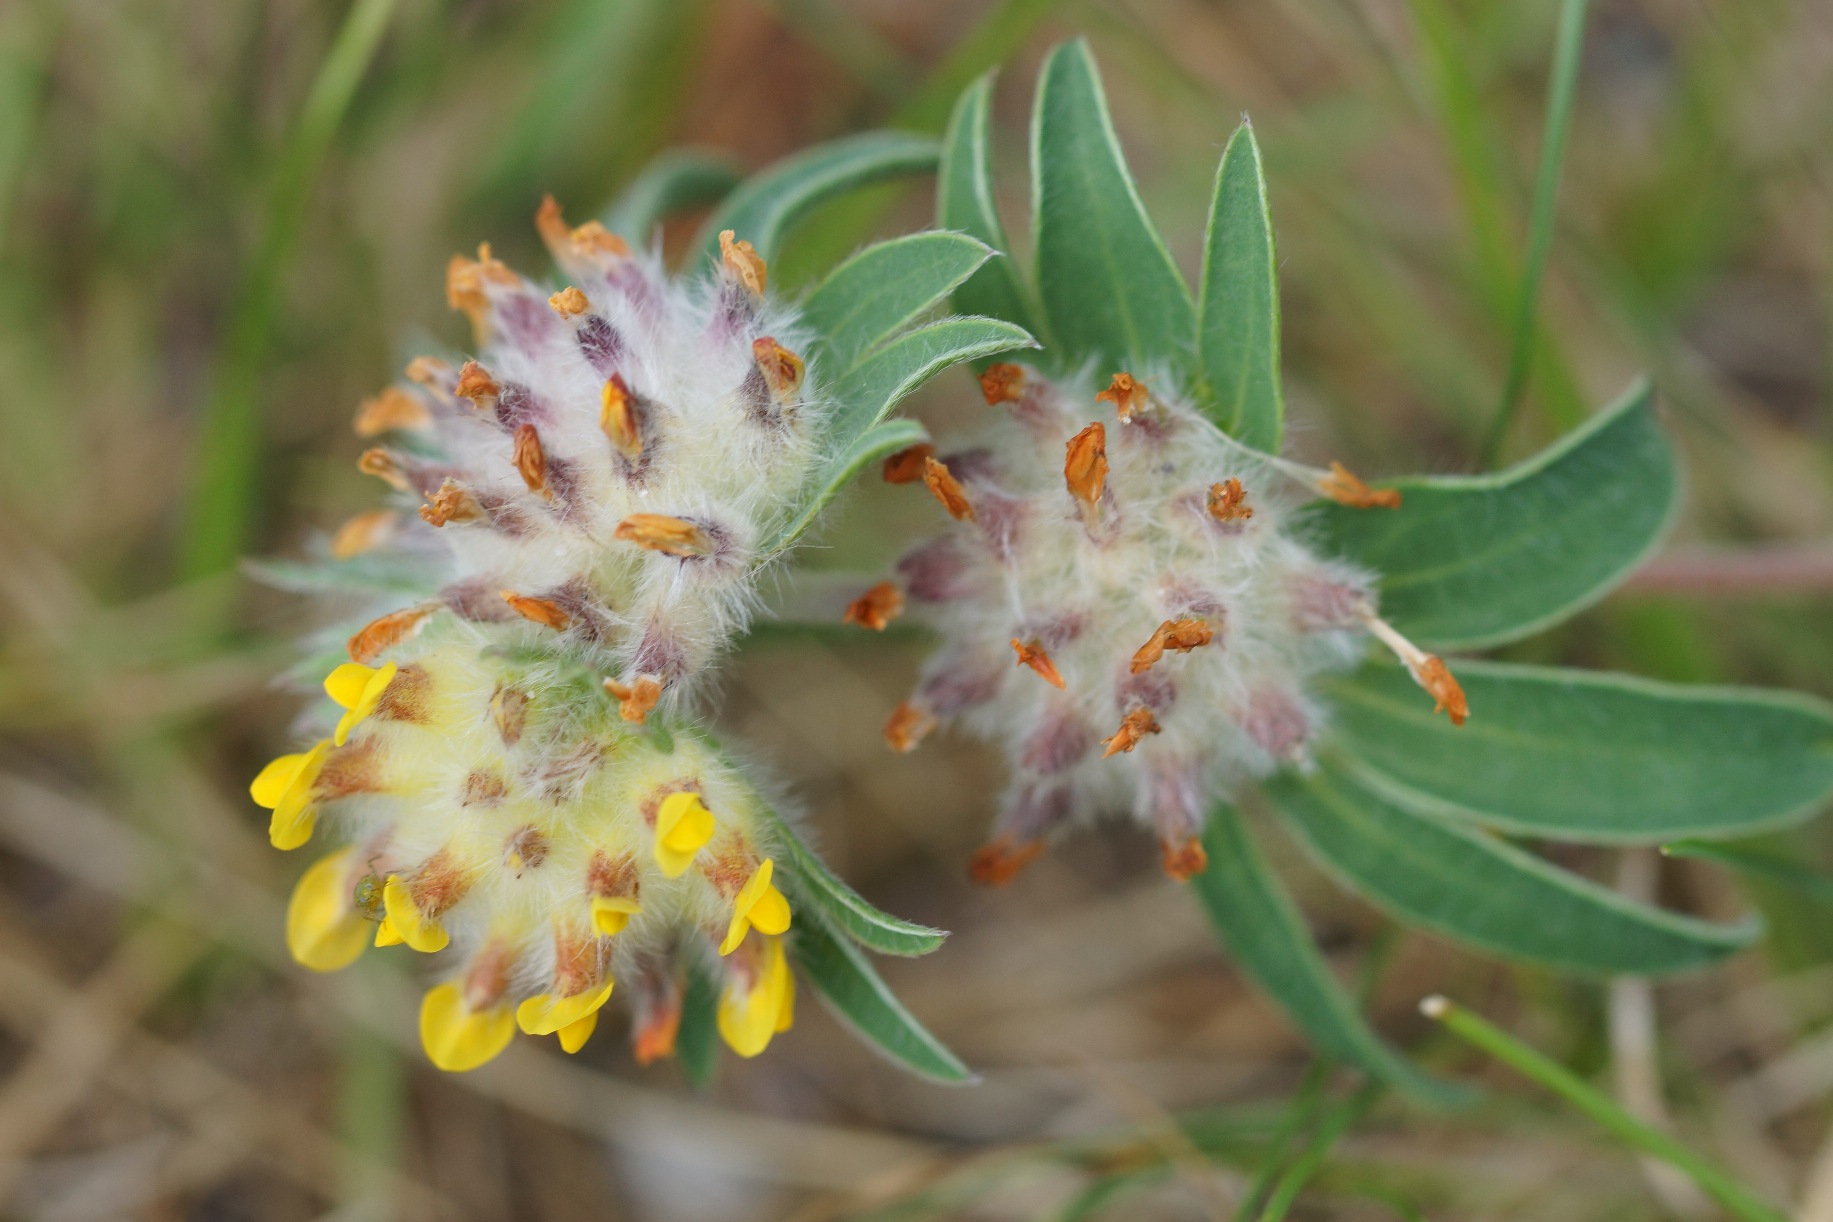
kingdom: Plantae
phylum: Tracheophyta
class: Magnoliopsida
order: Fabales
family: Fabaceae
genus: Anthyllis
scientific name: Anthyllis vulneraria
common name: Rundbælg
